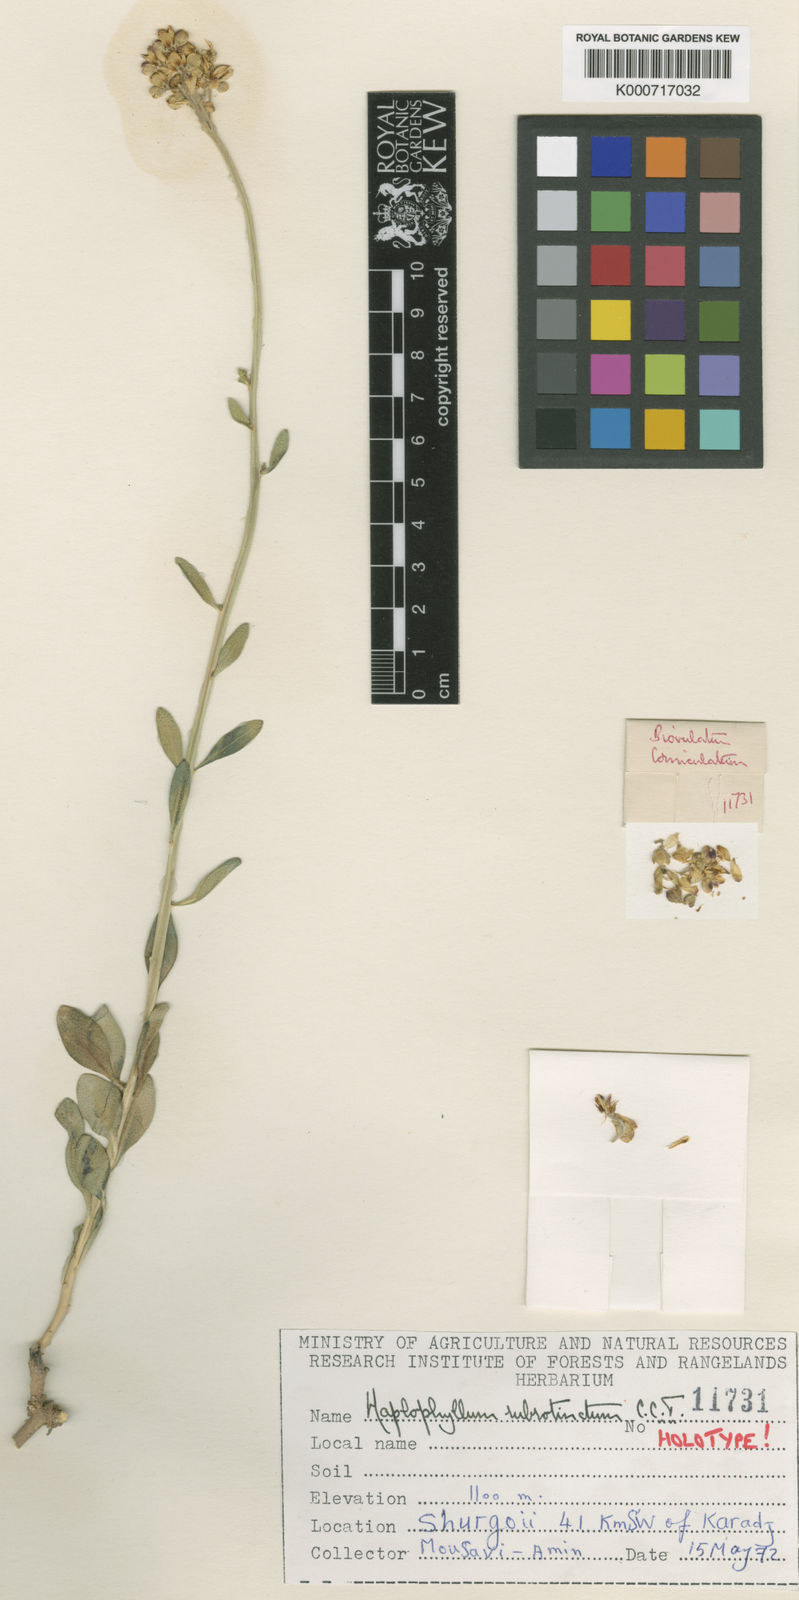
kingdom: Plantae
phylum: Tracheophyta
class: Magnoliopsida
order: Sapindales
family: Rutaceae
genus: Haplophyllum
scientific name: Haplophyllum rubrotinctum
